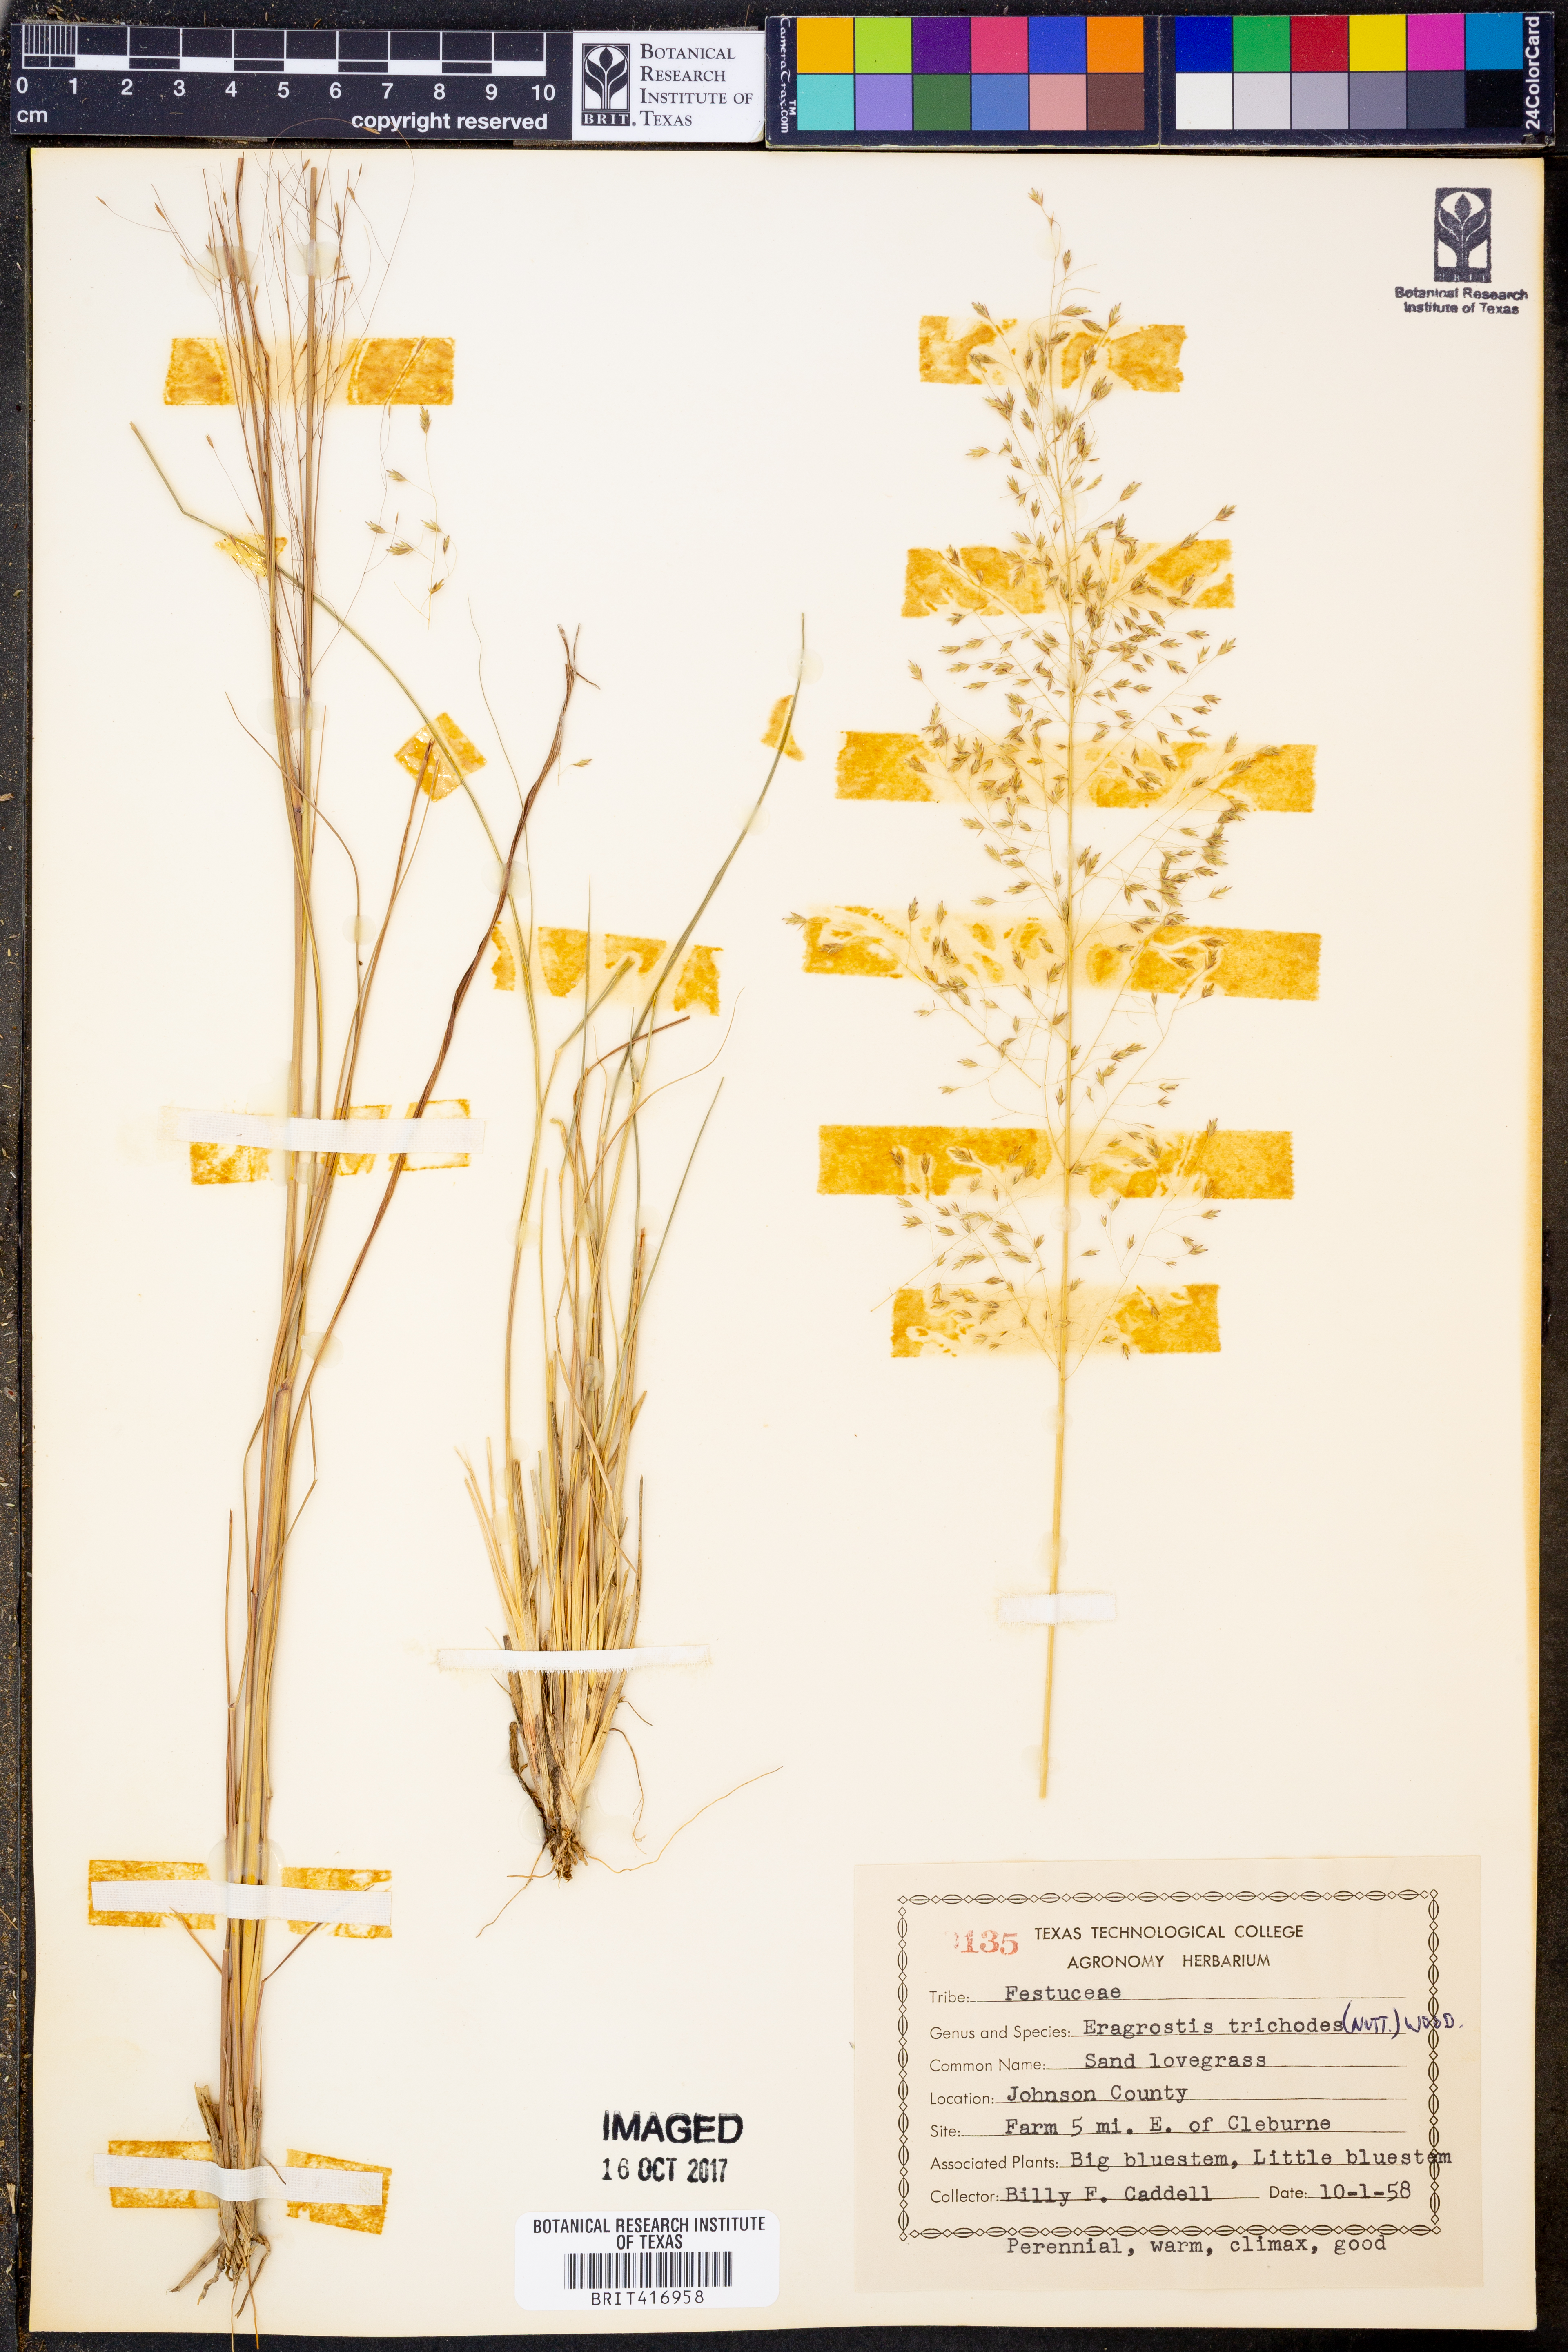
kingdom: Plantae
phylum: Tracheophyta
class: Liliopsida
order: Poales
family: Poaceae
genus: Eragrostis
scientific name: Eragrostis trichodes
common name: Sand love grass
